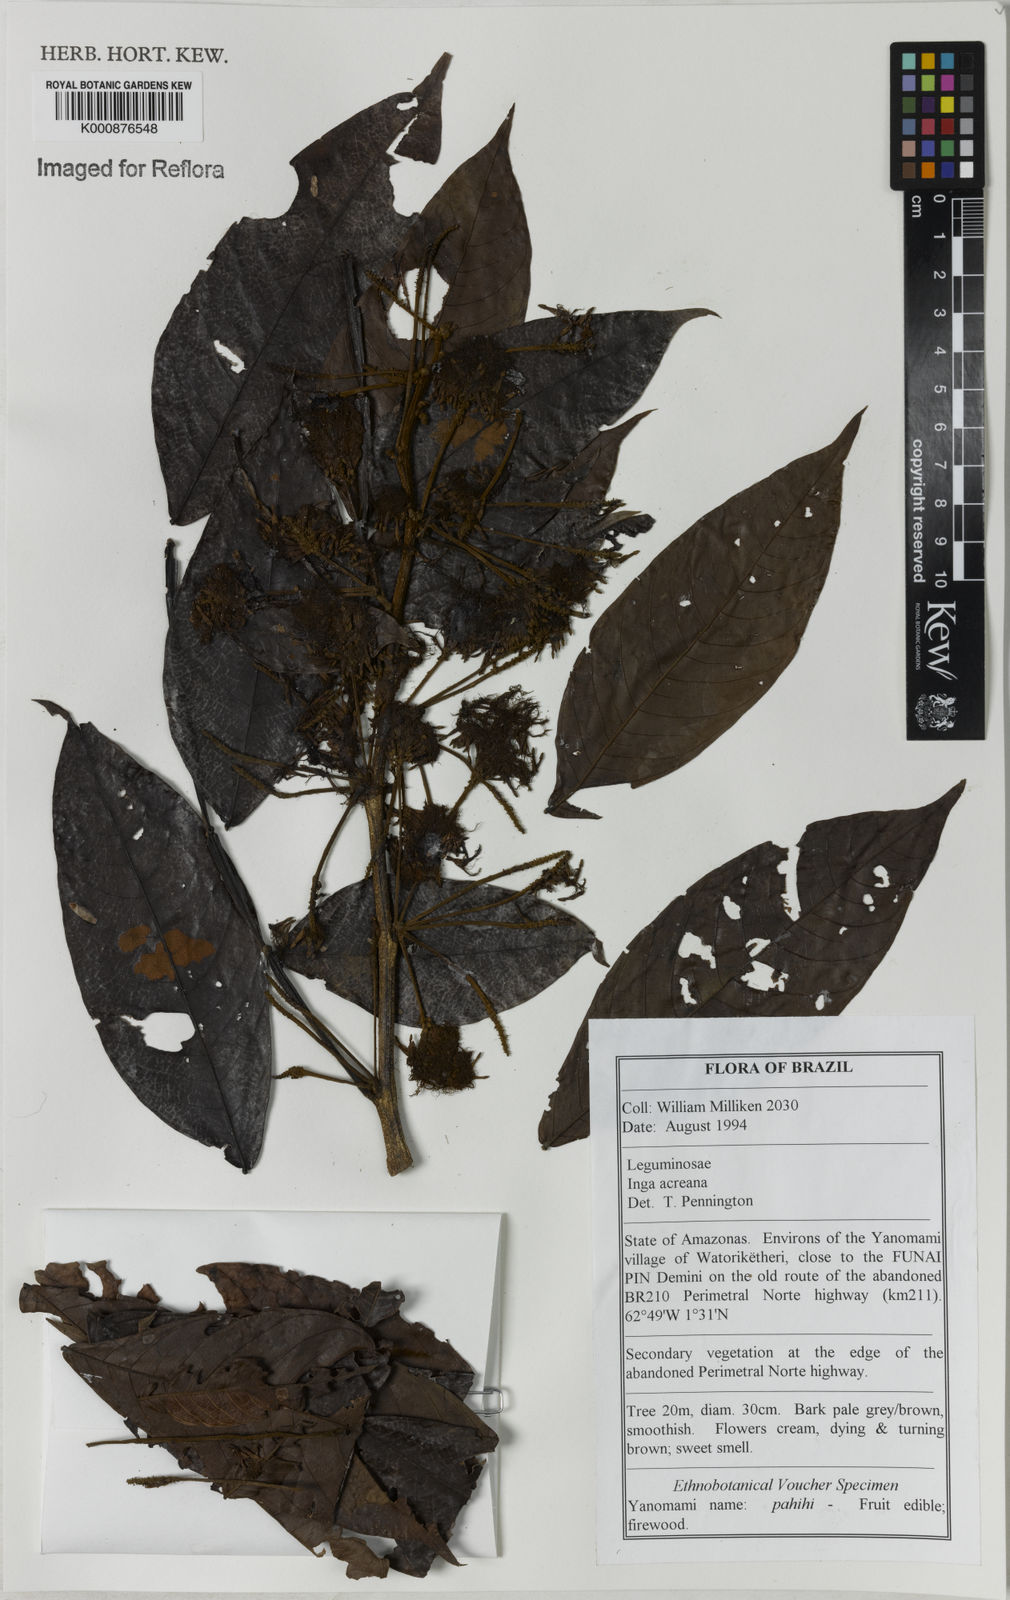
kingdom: Plantae
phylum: Tracheophyta
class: Magnoliopsida
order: Fabales
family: Fabaceae
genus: Inga
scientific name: Inga acreana
